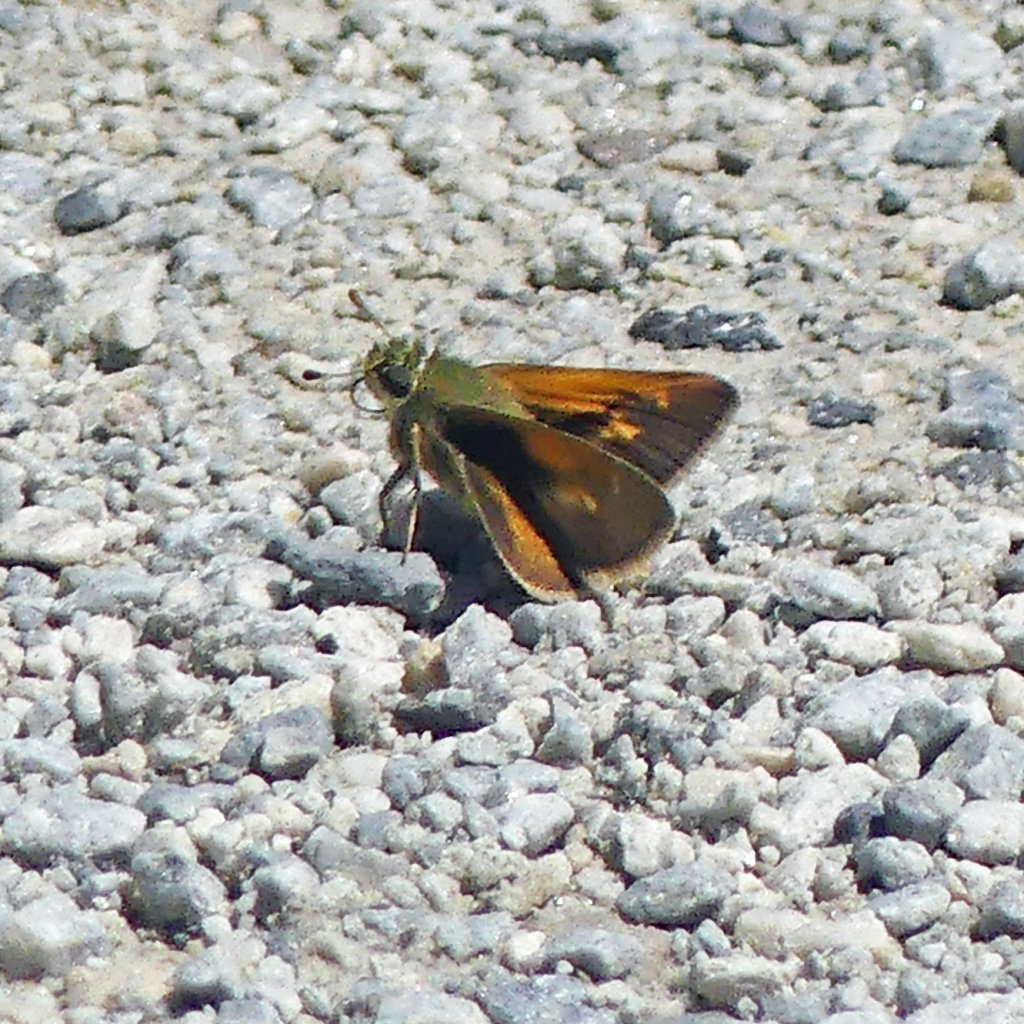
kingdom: Animalia
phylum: Arthropoda
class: Insecta
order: Lepidoptera
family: Hesperiidae
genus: Polites
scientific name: Polites themistocles
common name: Tawny-edged Skipper
